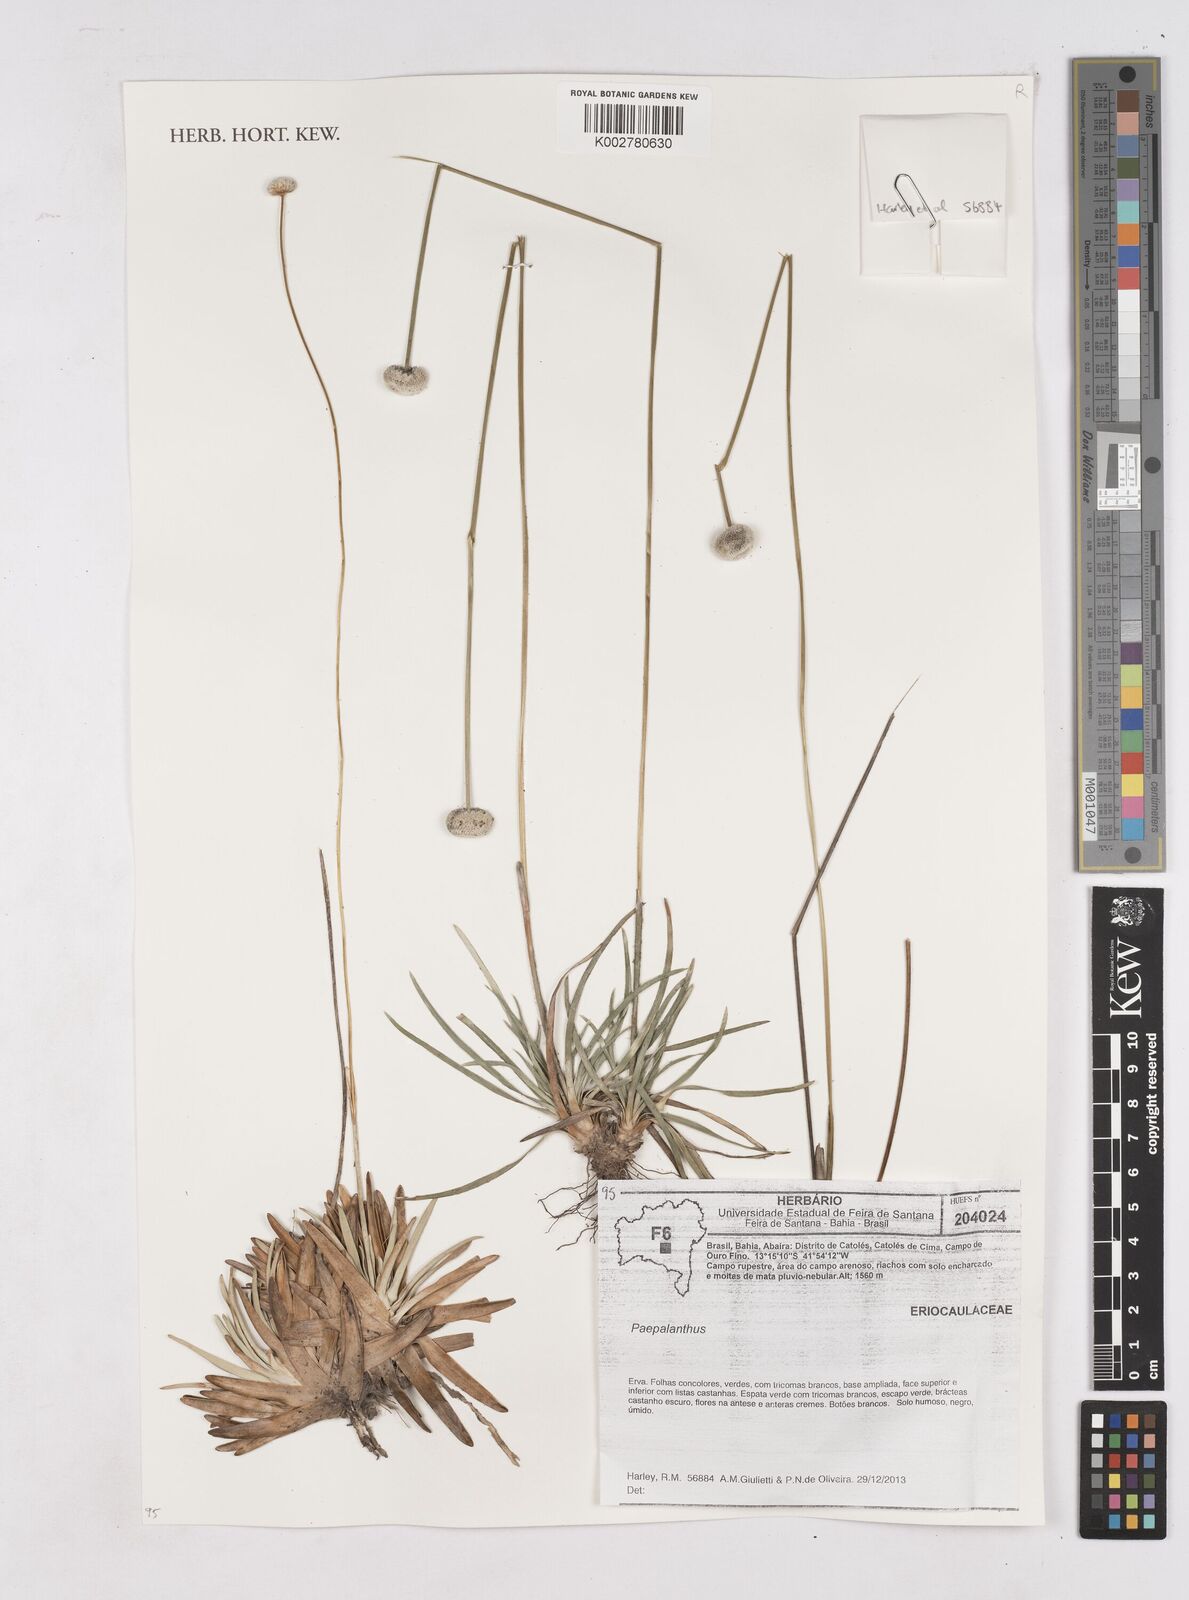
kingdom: Plantae
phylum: Tracheophyta
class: Liliopsida
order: Poales
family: Eriocaulaceae
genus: Paepalanthus
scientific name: Paepalanthus
